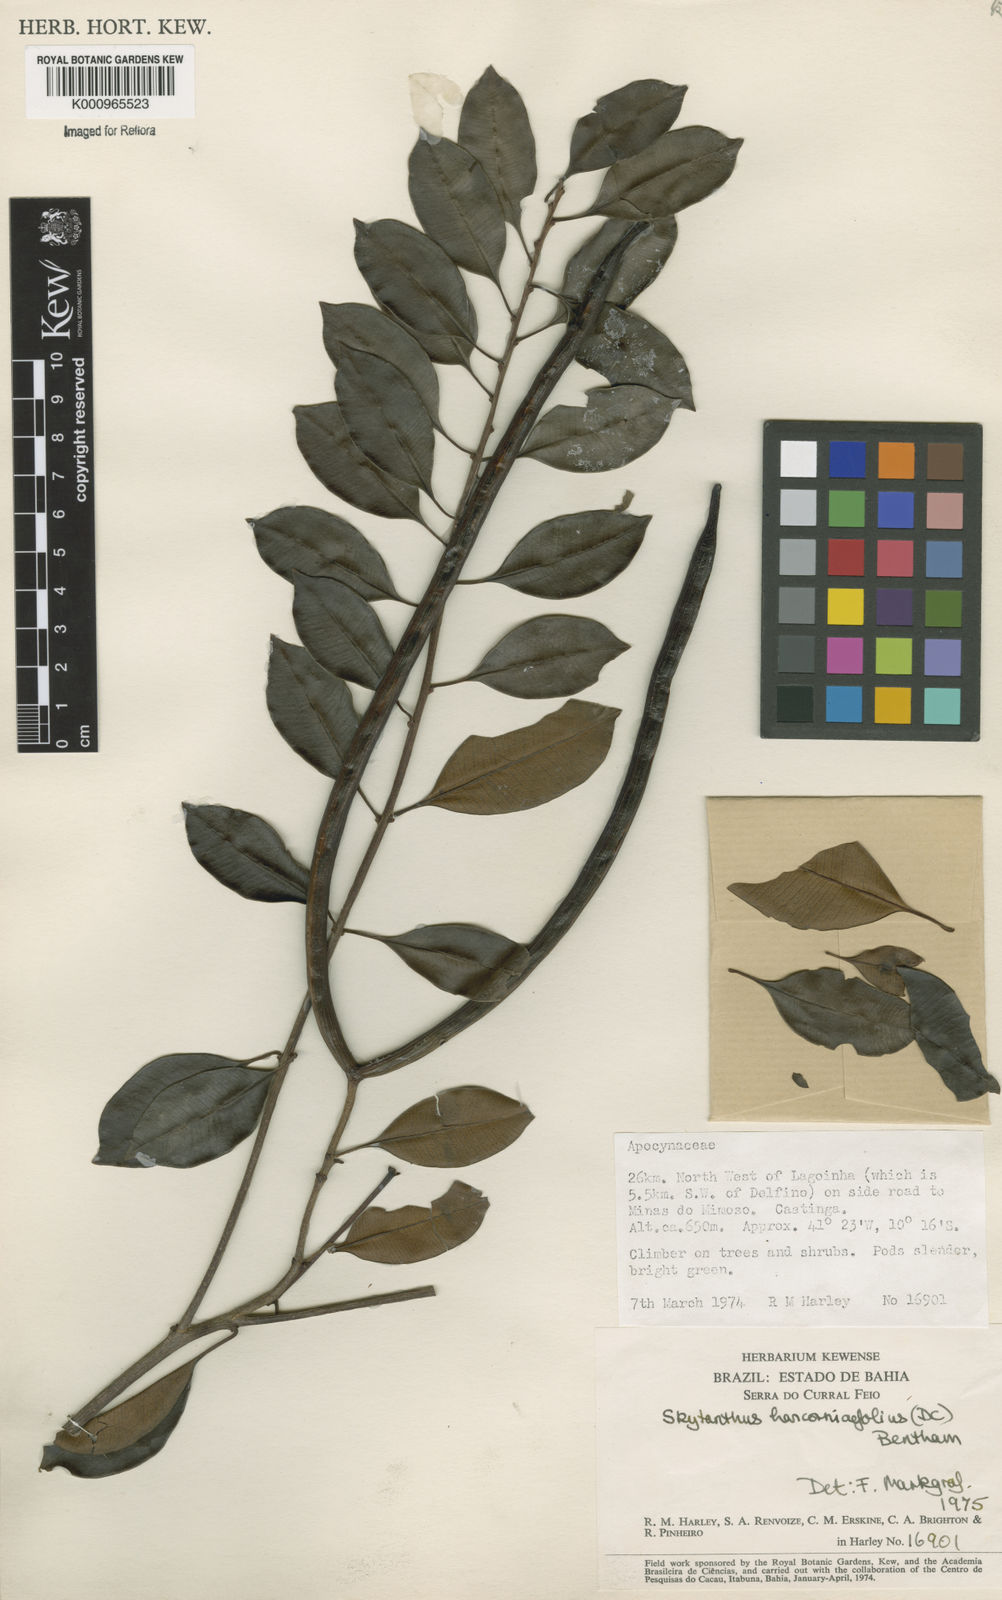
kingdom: Plantae
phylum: Tracheophyta
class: Magnoliopsida
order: Gentianales
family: Apocynaceae
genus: Skytanthus
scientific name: Skytanthus hancorniifolius
